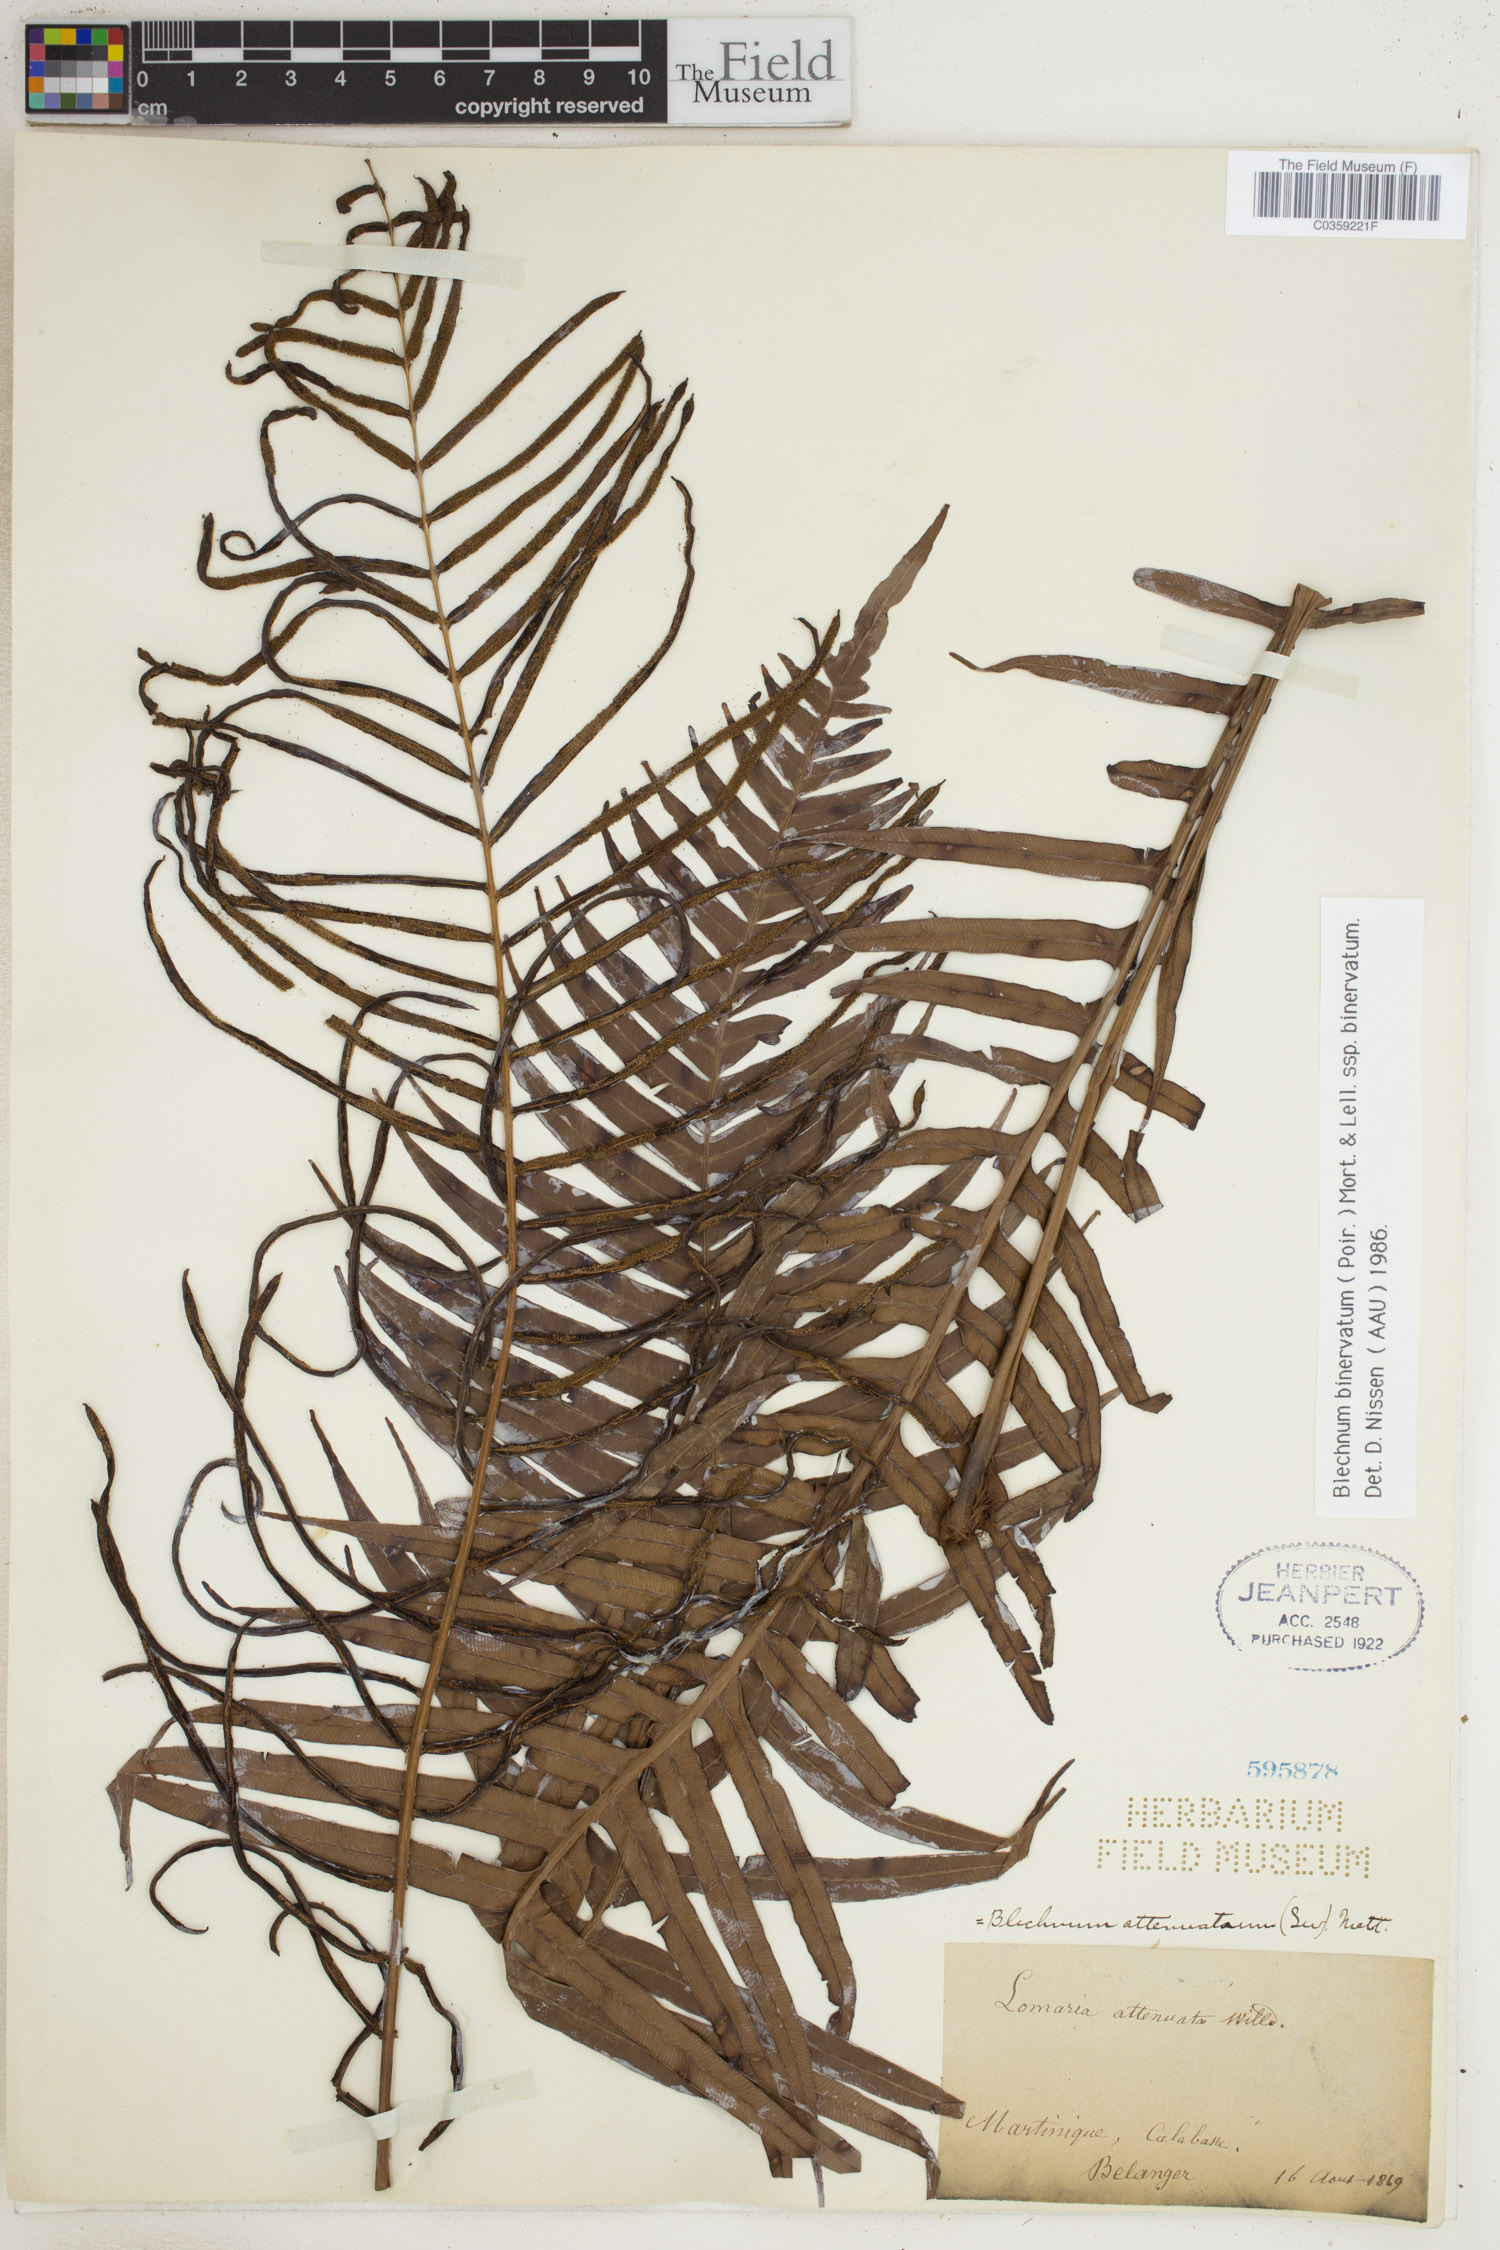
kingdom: Plantae
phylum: Tracheophyta
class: Polypodiopsida
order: Polypodiales
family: Blechnaceae
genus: Lomaridium
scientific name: Lomaridium binervatum
